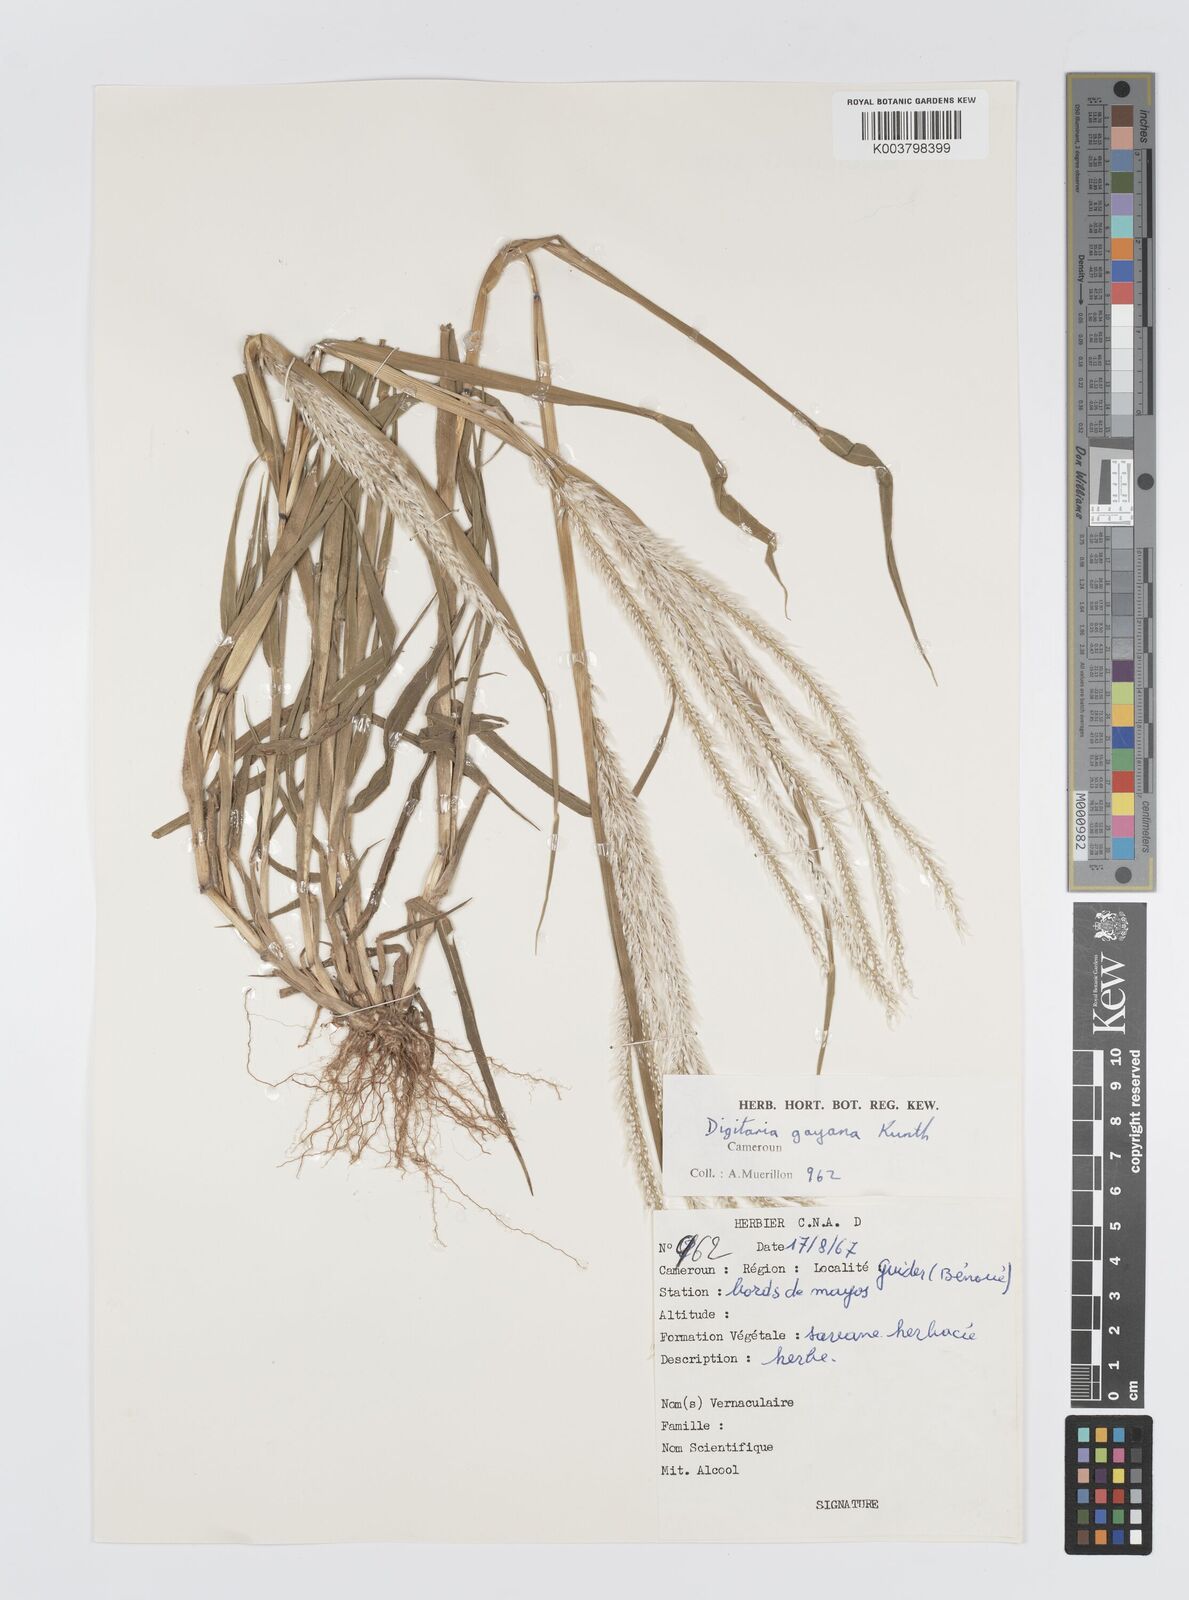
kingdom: Plantae
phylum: Tracheophyta
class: Liliopsida
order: Poales
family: Poaceae
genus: Digitaria
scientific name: Digitaria gayana
